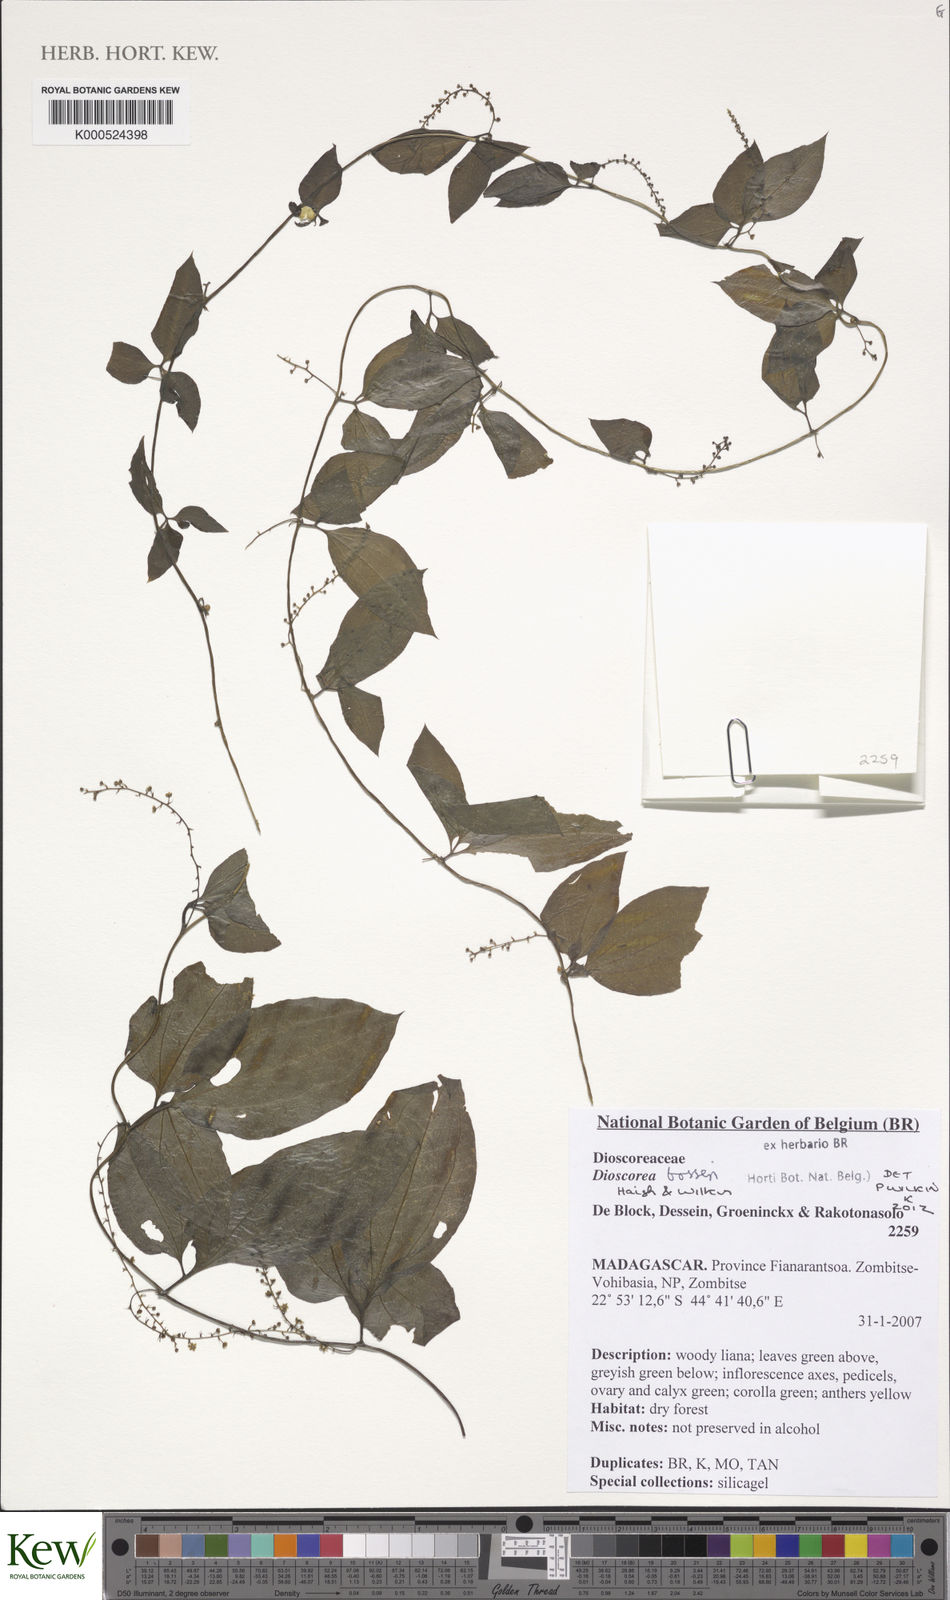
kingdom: Plantae
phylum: Tracheophyta
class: Liliopsida
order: Dioscoreales
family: Dioscoreaceae
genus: Dioscorea
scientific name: Dioscorea bosseri
